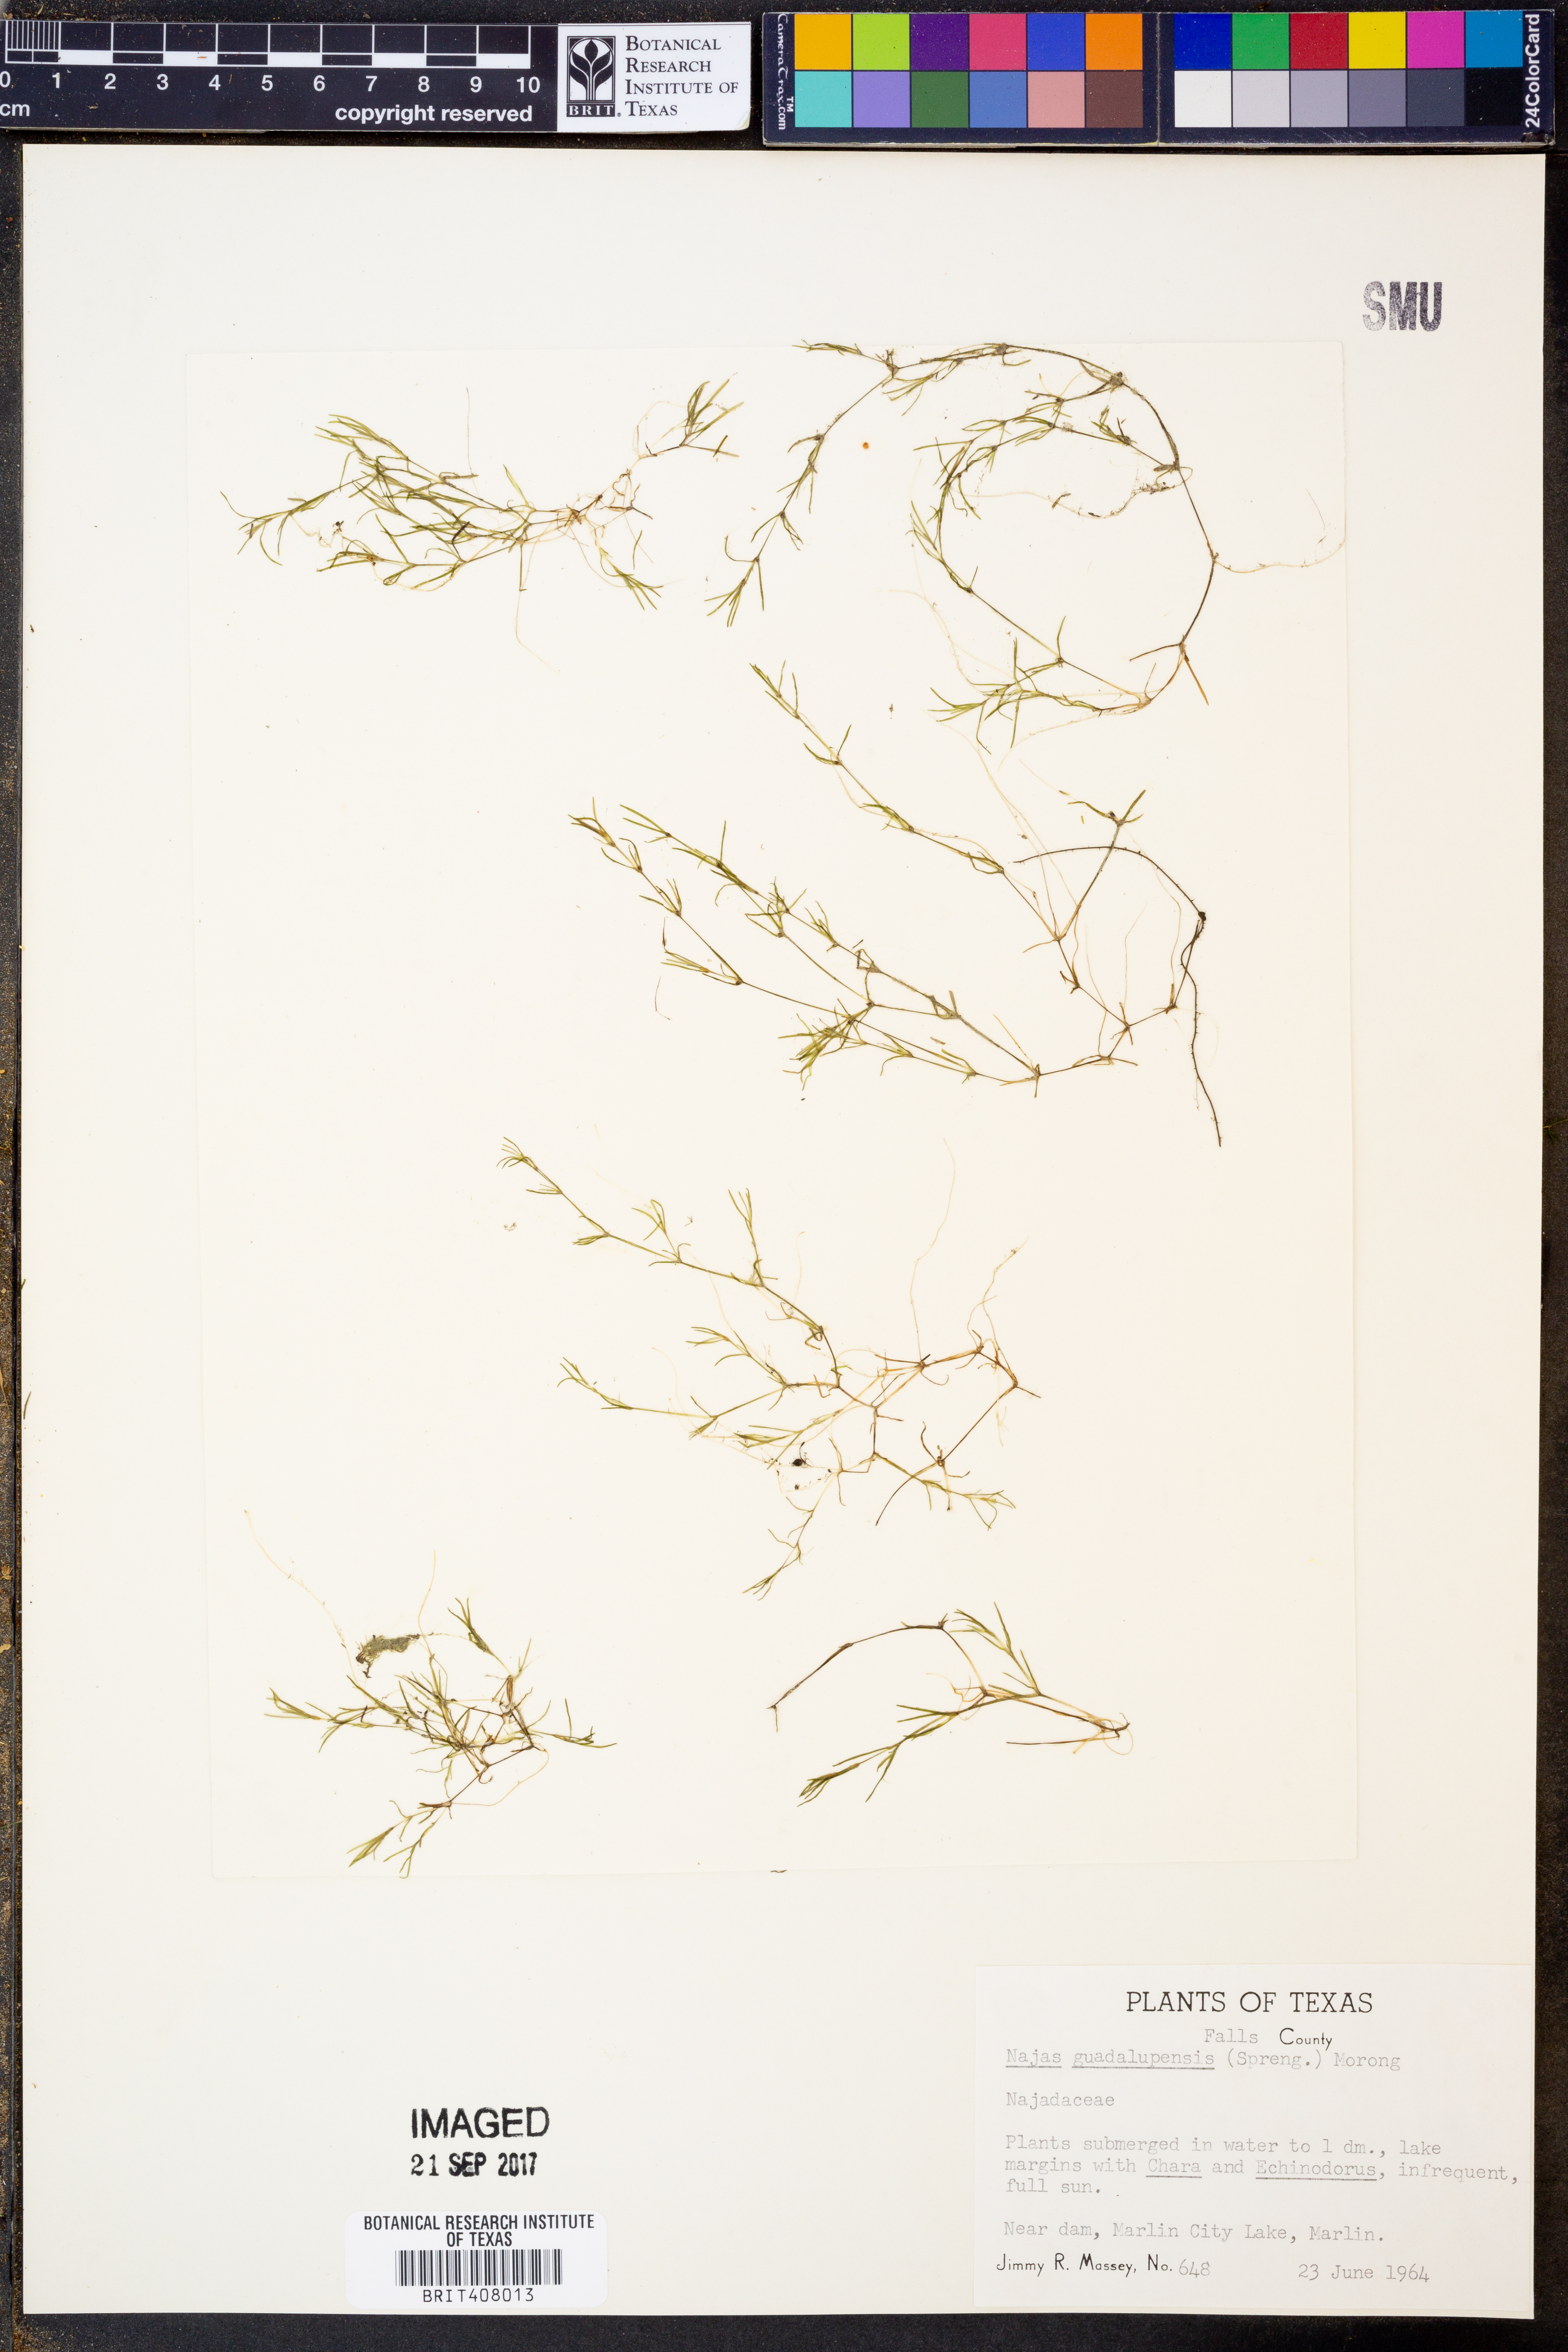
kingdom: Plantae
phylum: Tracheophyta
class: Liliopsida
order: Alismatales
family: Hydrocharitaceae
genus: Najas
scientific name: Najas guadalupensis
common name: Southern naiad
